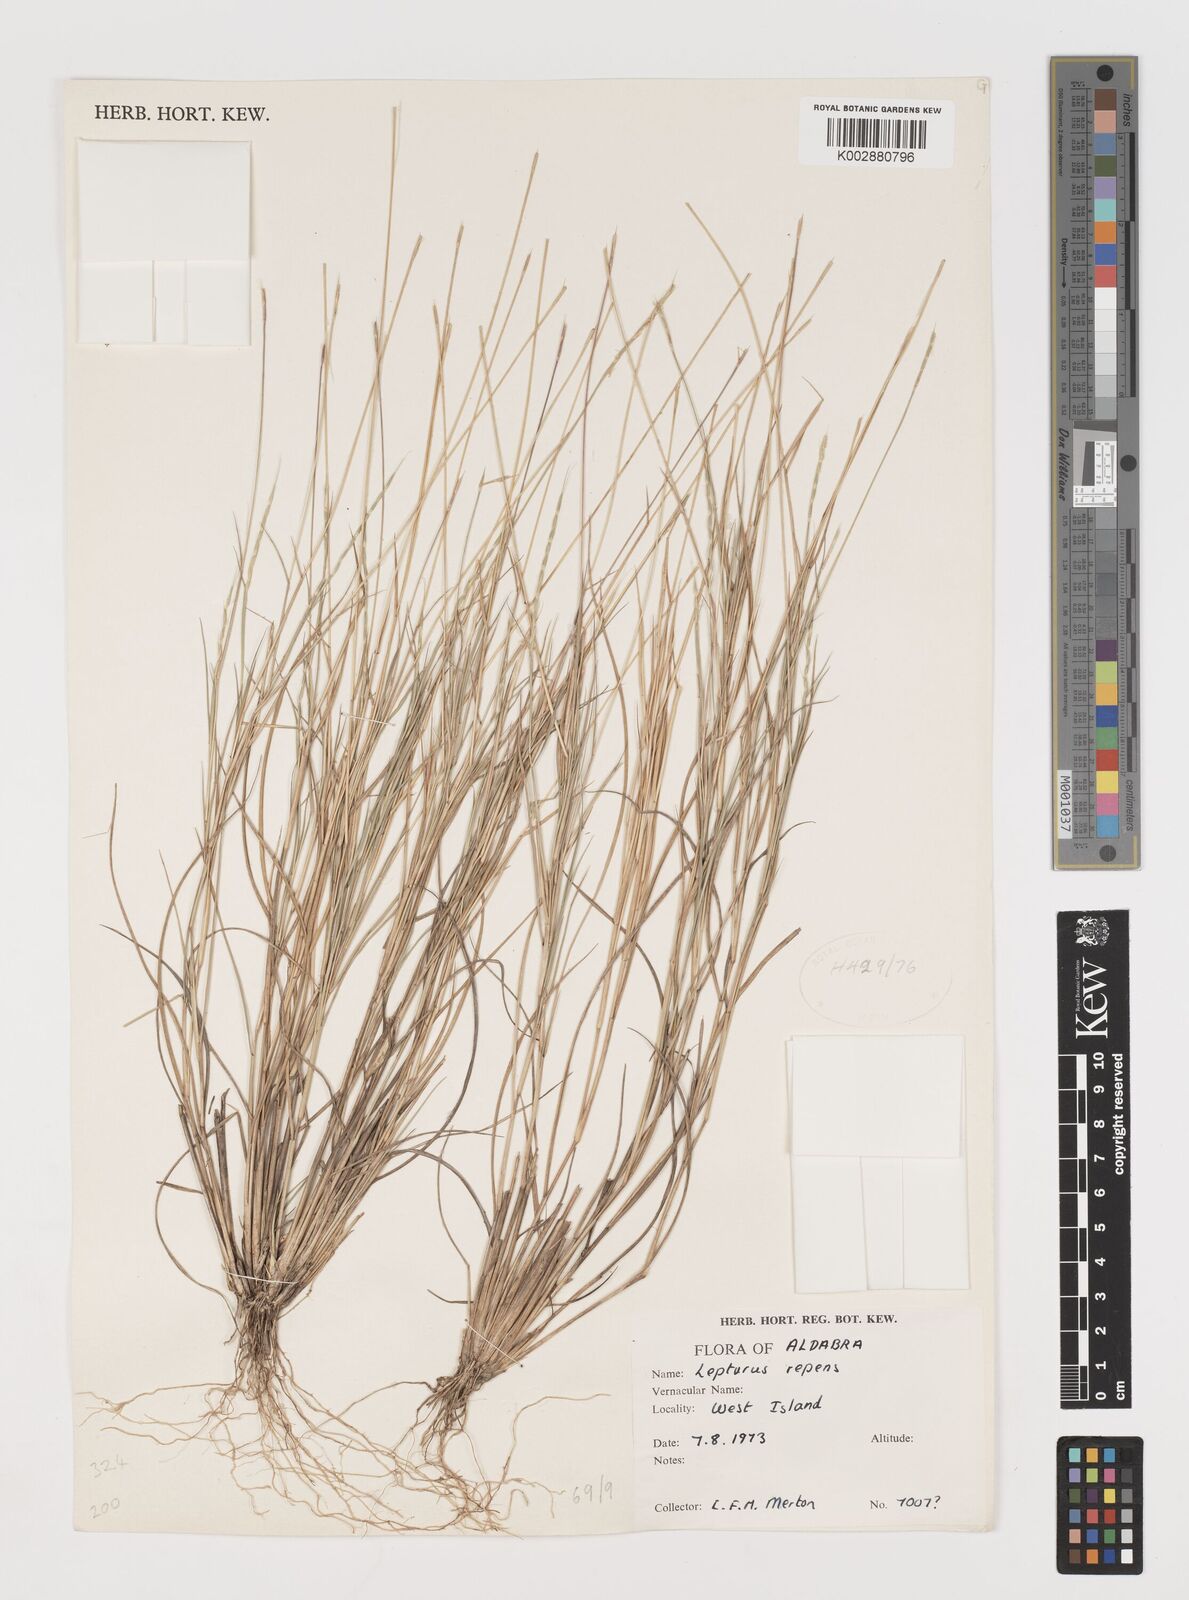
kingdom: Plantae
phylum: Tracheophyta
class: Liliopsida
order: Poales
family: Poaceae
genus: Lepturus
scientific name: Lepturus repens
